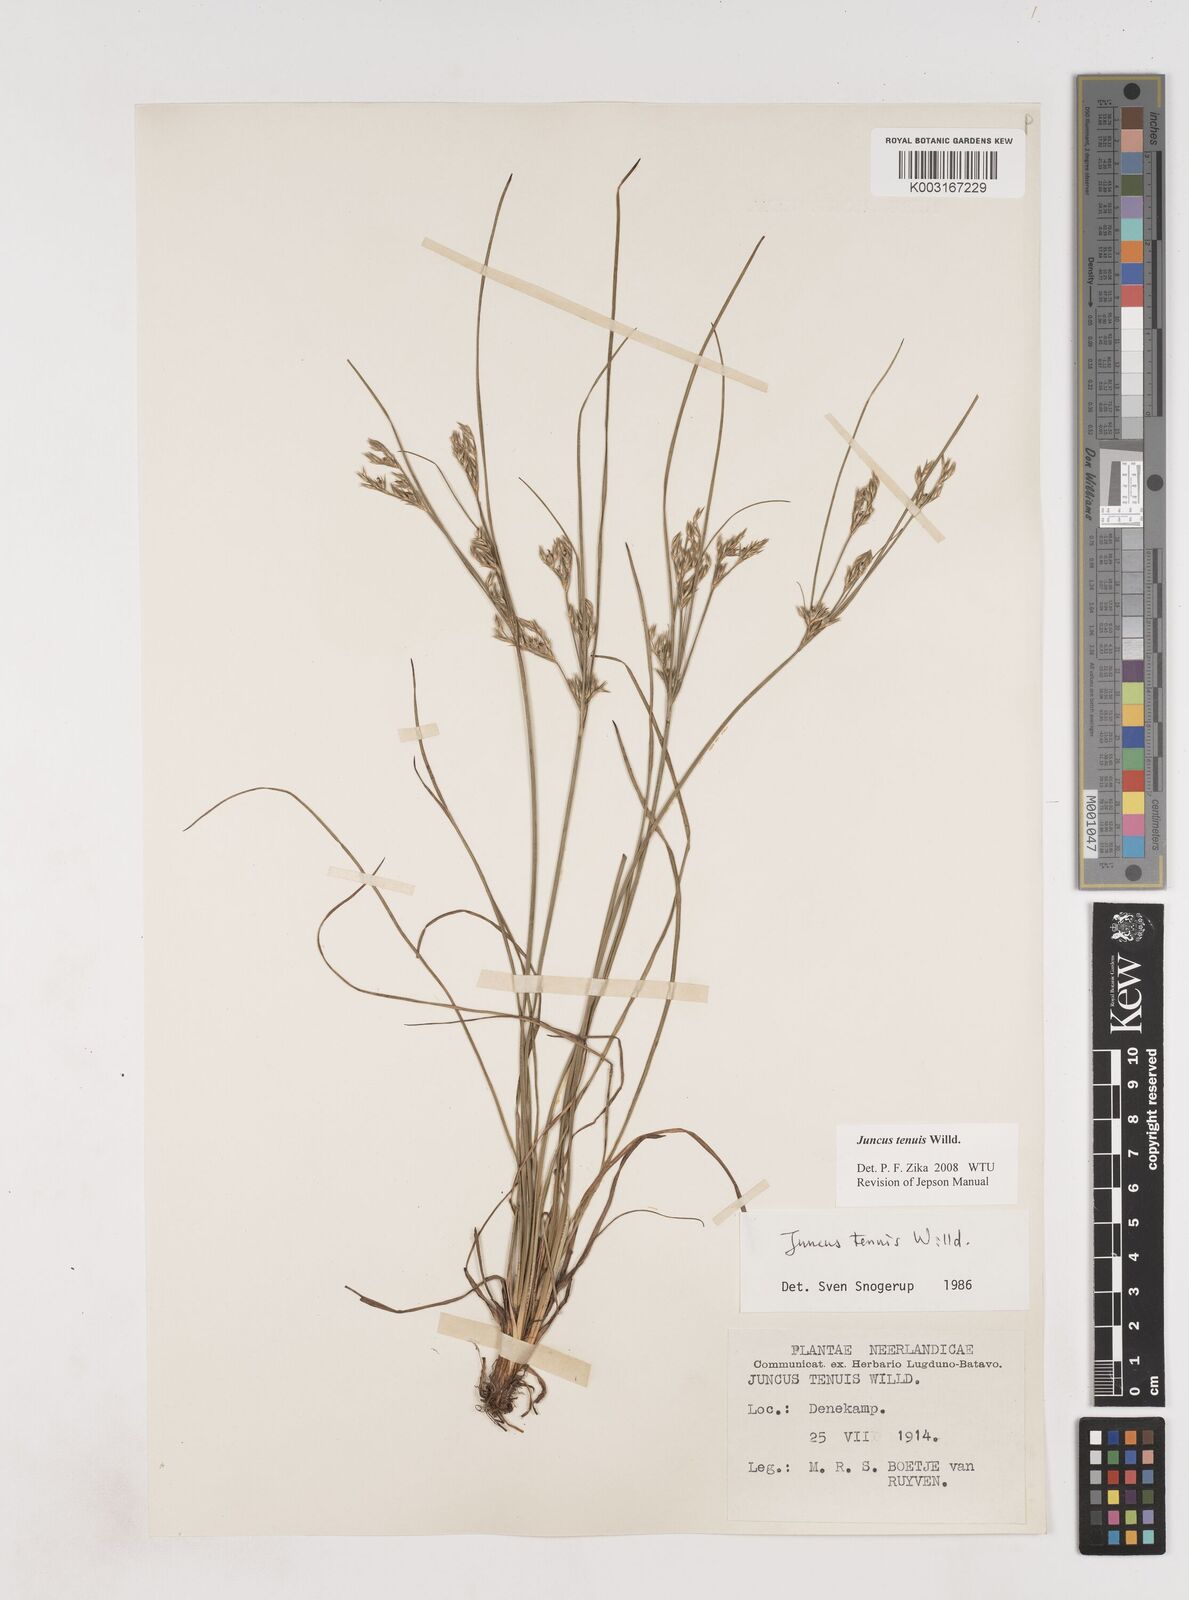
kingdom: Plantae
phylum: Tracheophyta
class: Liliopsida
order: Poales
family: Juncaceae
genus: Juncus
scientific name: Juncus tenuis
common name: Slender rush
